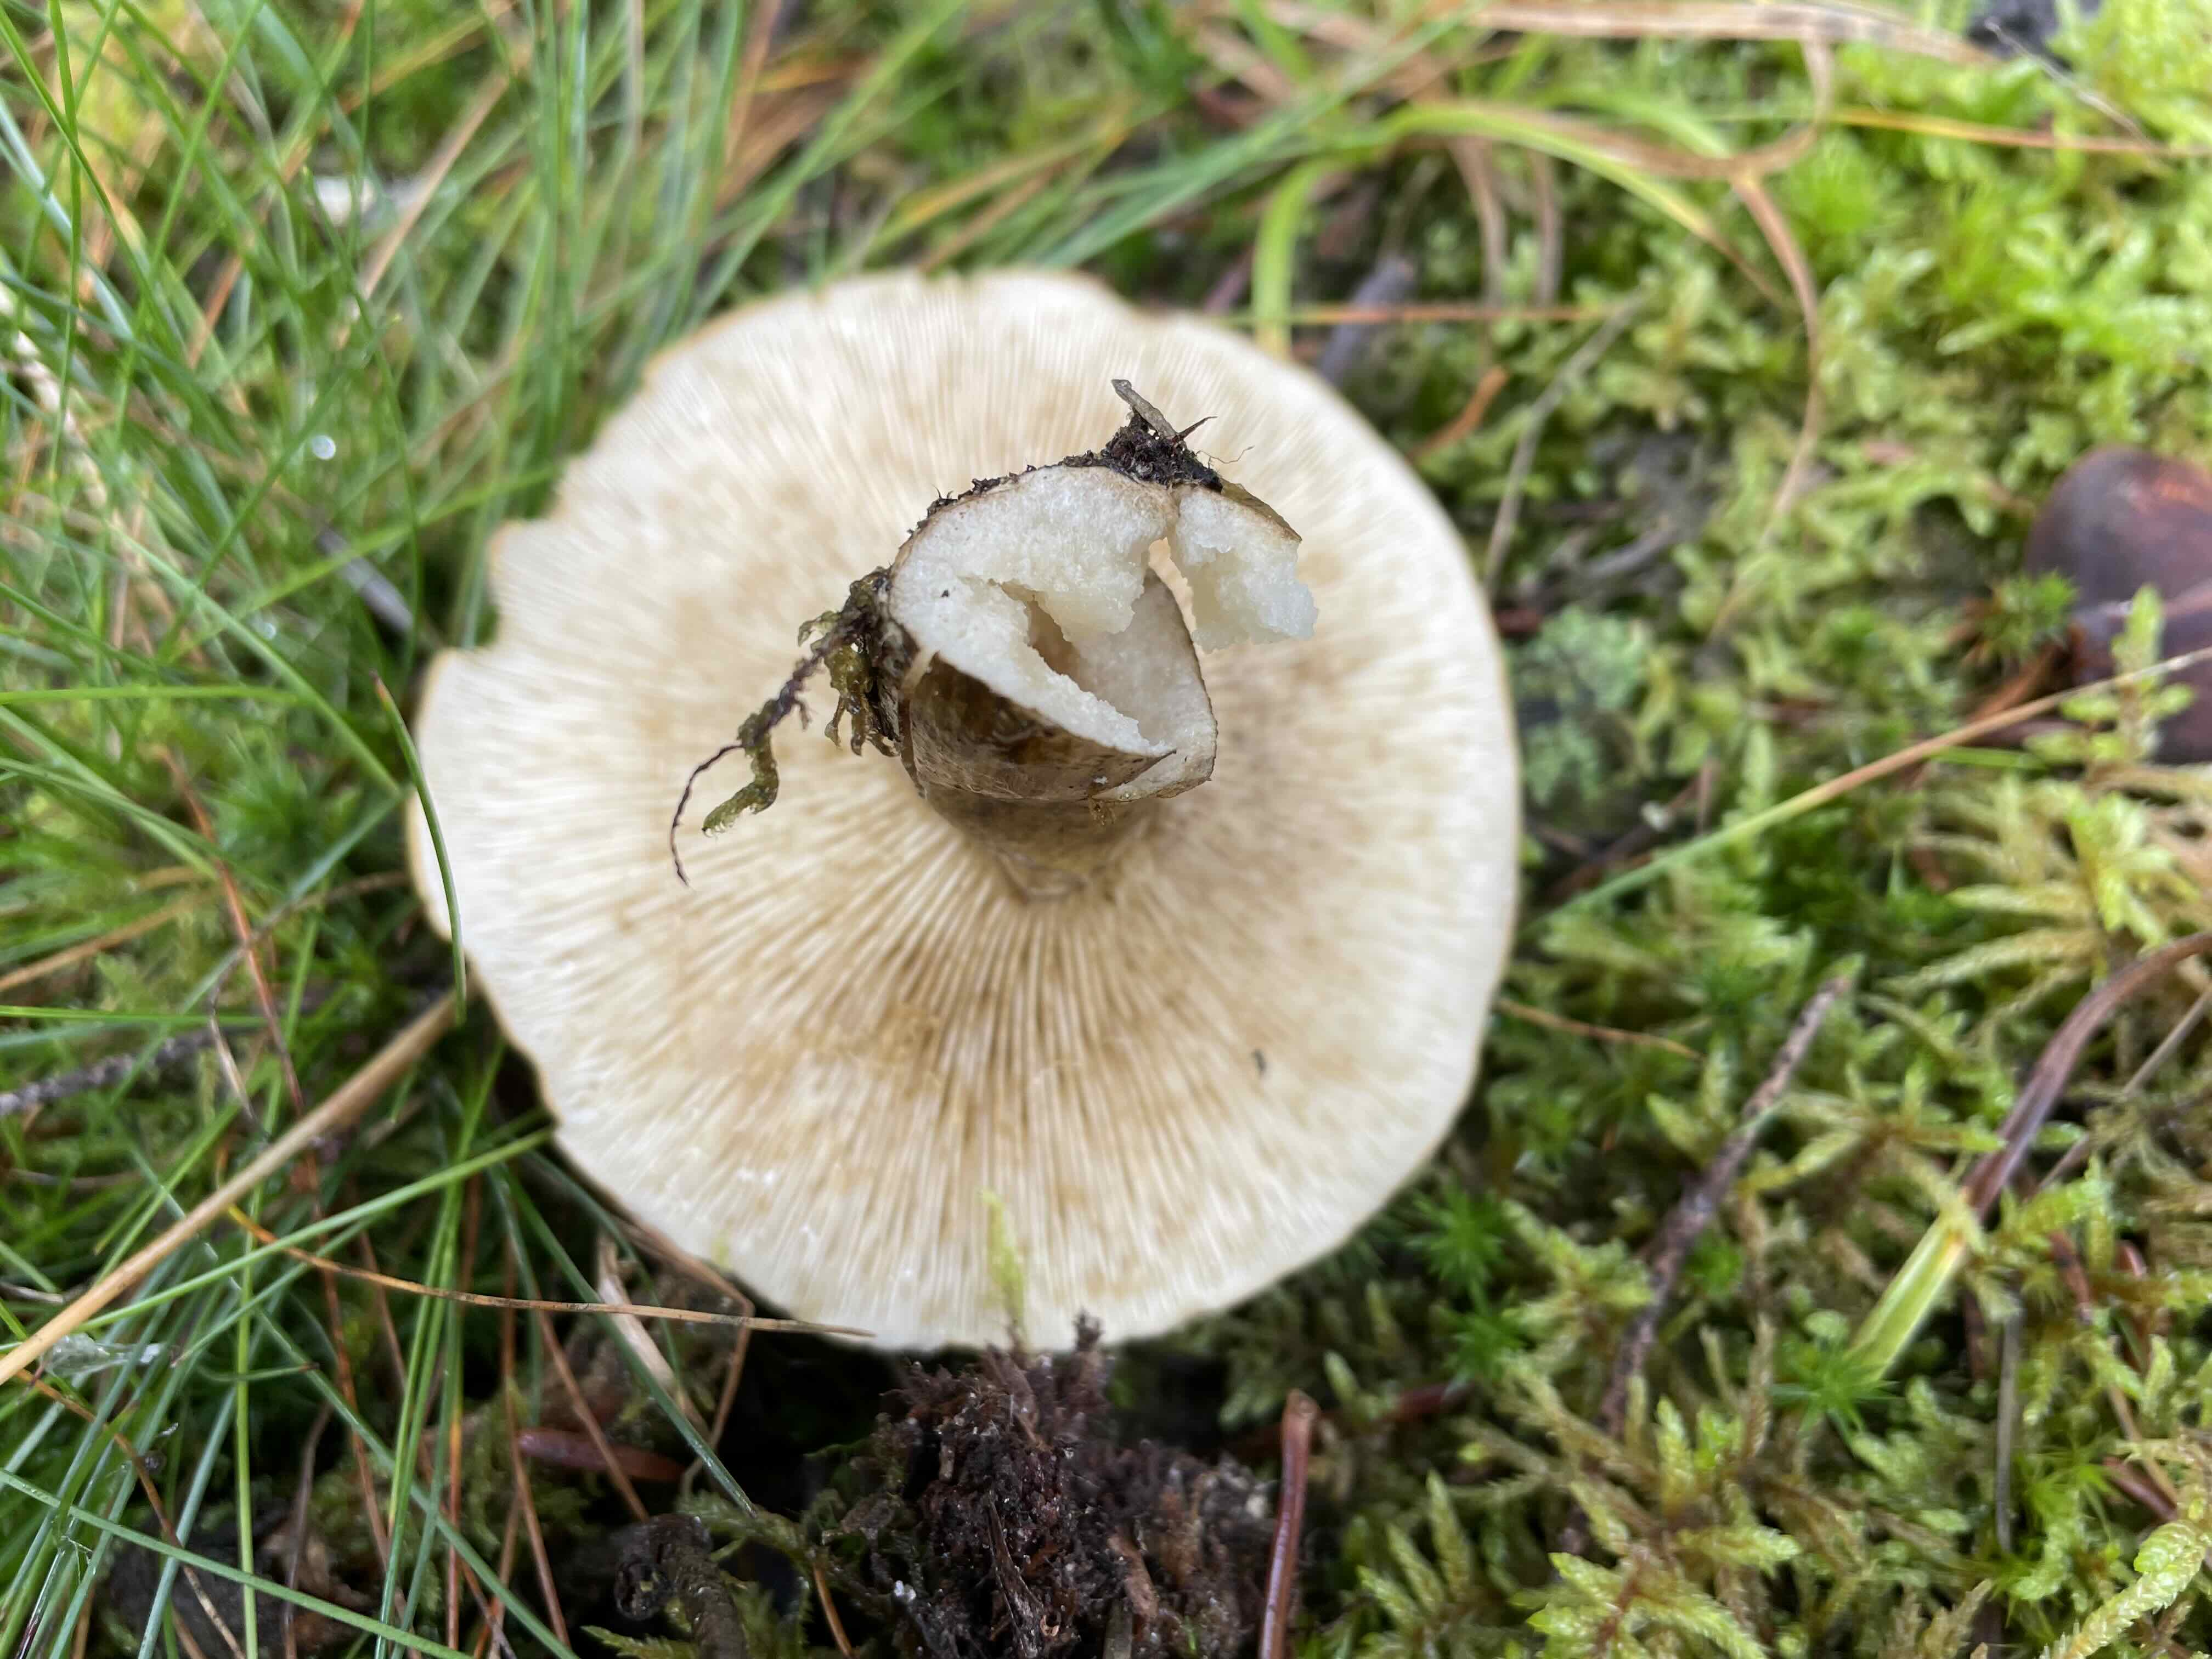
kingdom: Fungi
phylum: Basidiomycota
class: Agaricomycetes
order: Russulales
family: Russulaceae
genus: Lactarius
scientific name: Lactarius necator
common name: manddraber-mælkehat
